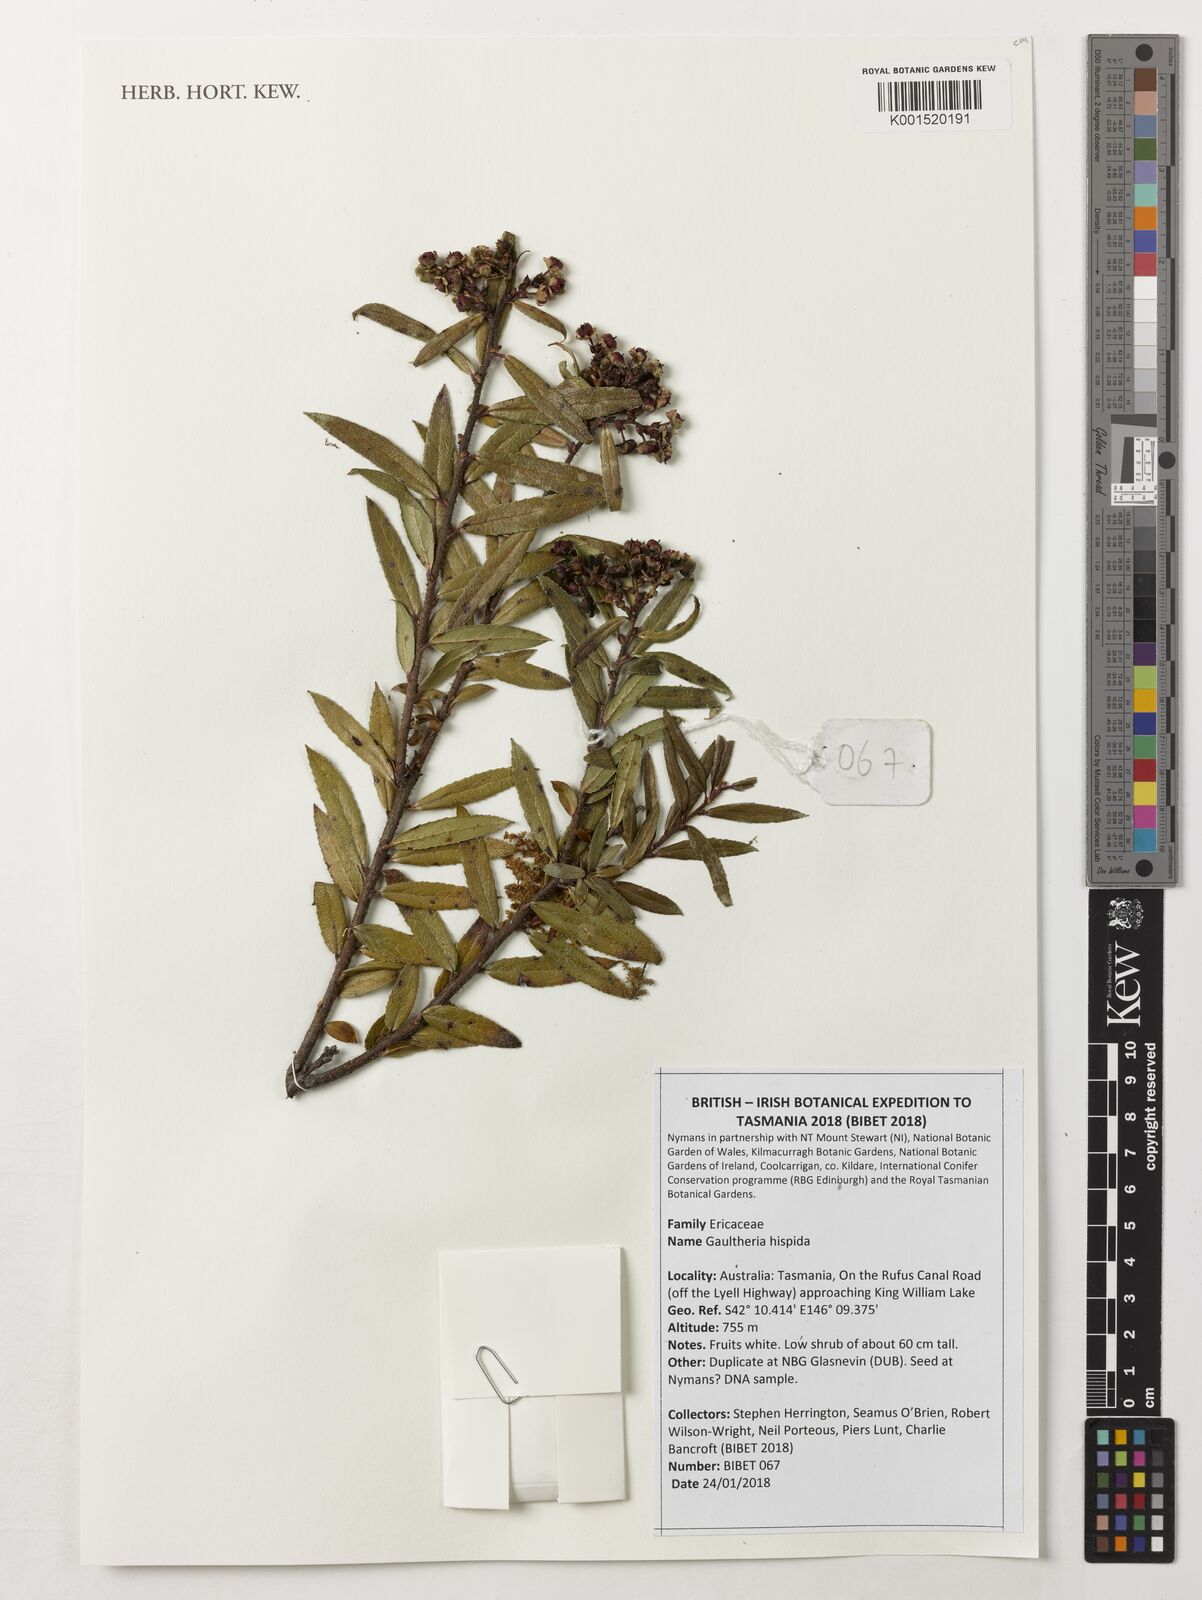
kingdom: Plantae
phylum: Tracheophyta
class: Magnoliopsida
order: Ericales
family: Ericaceae
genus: Gaultheria
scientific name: Gaultheria hispida
